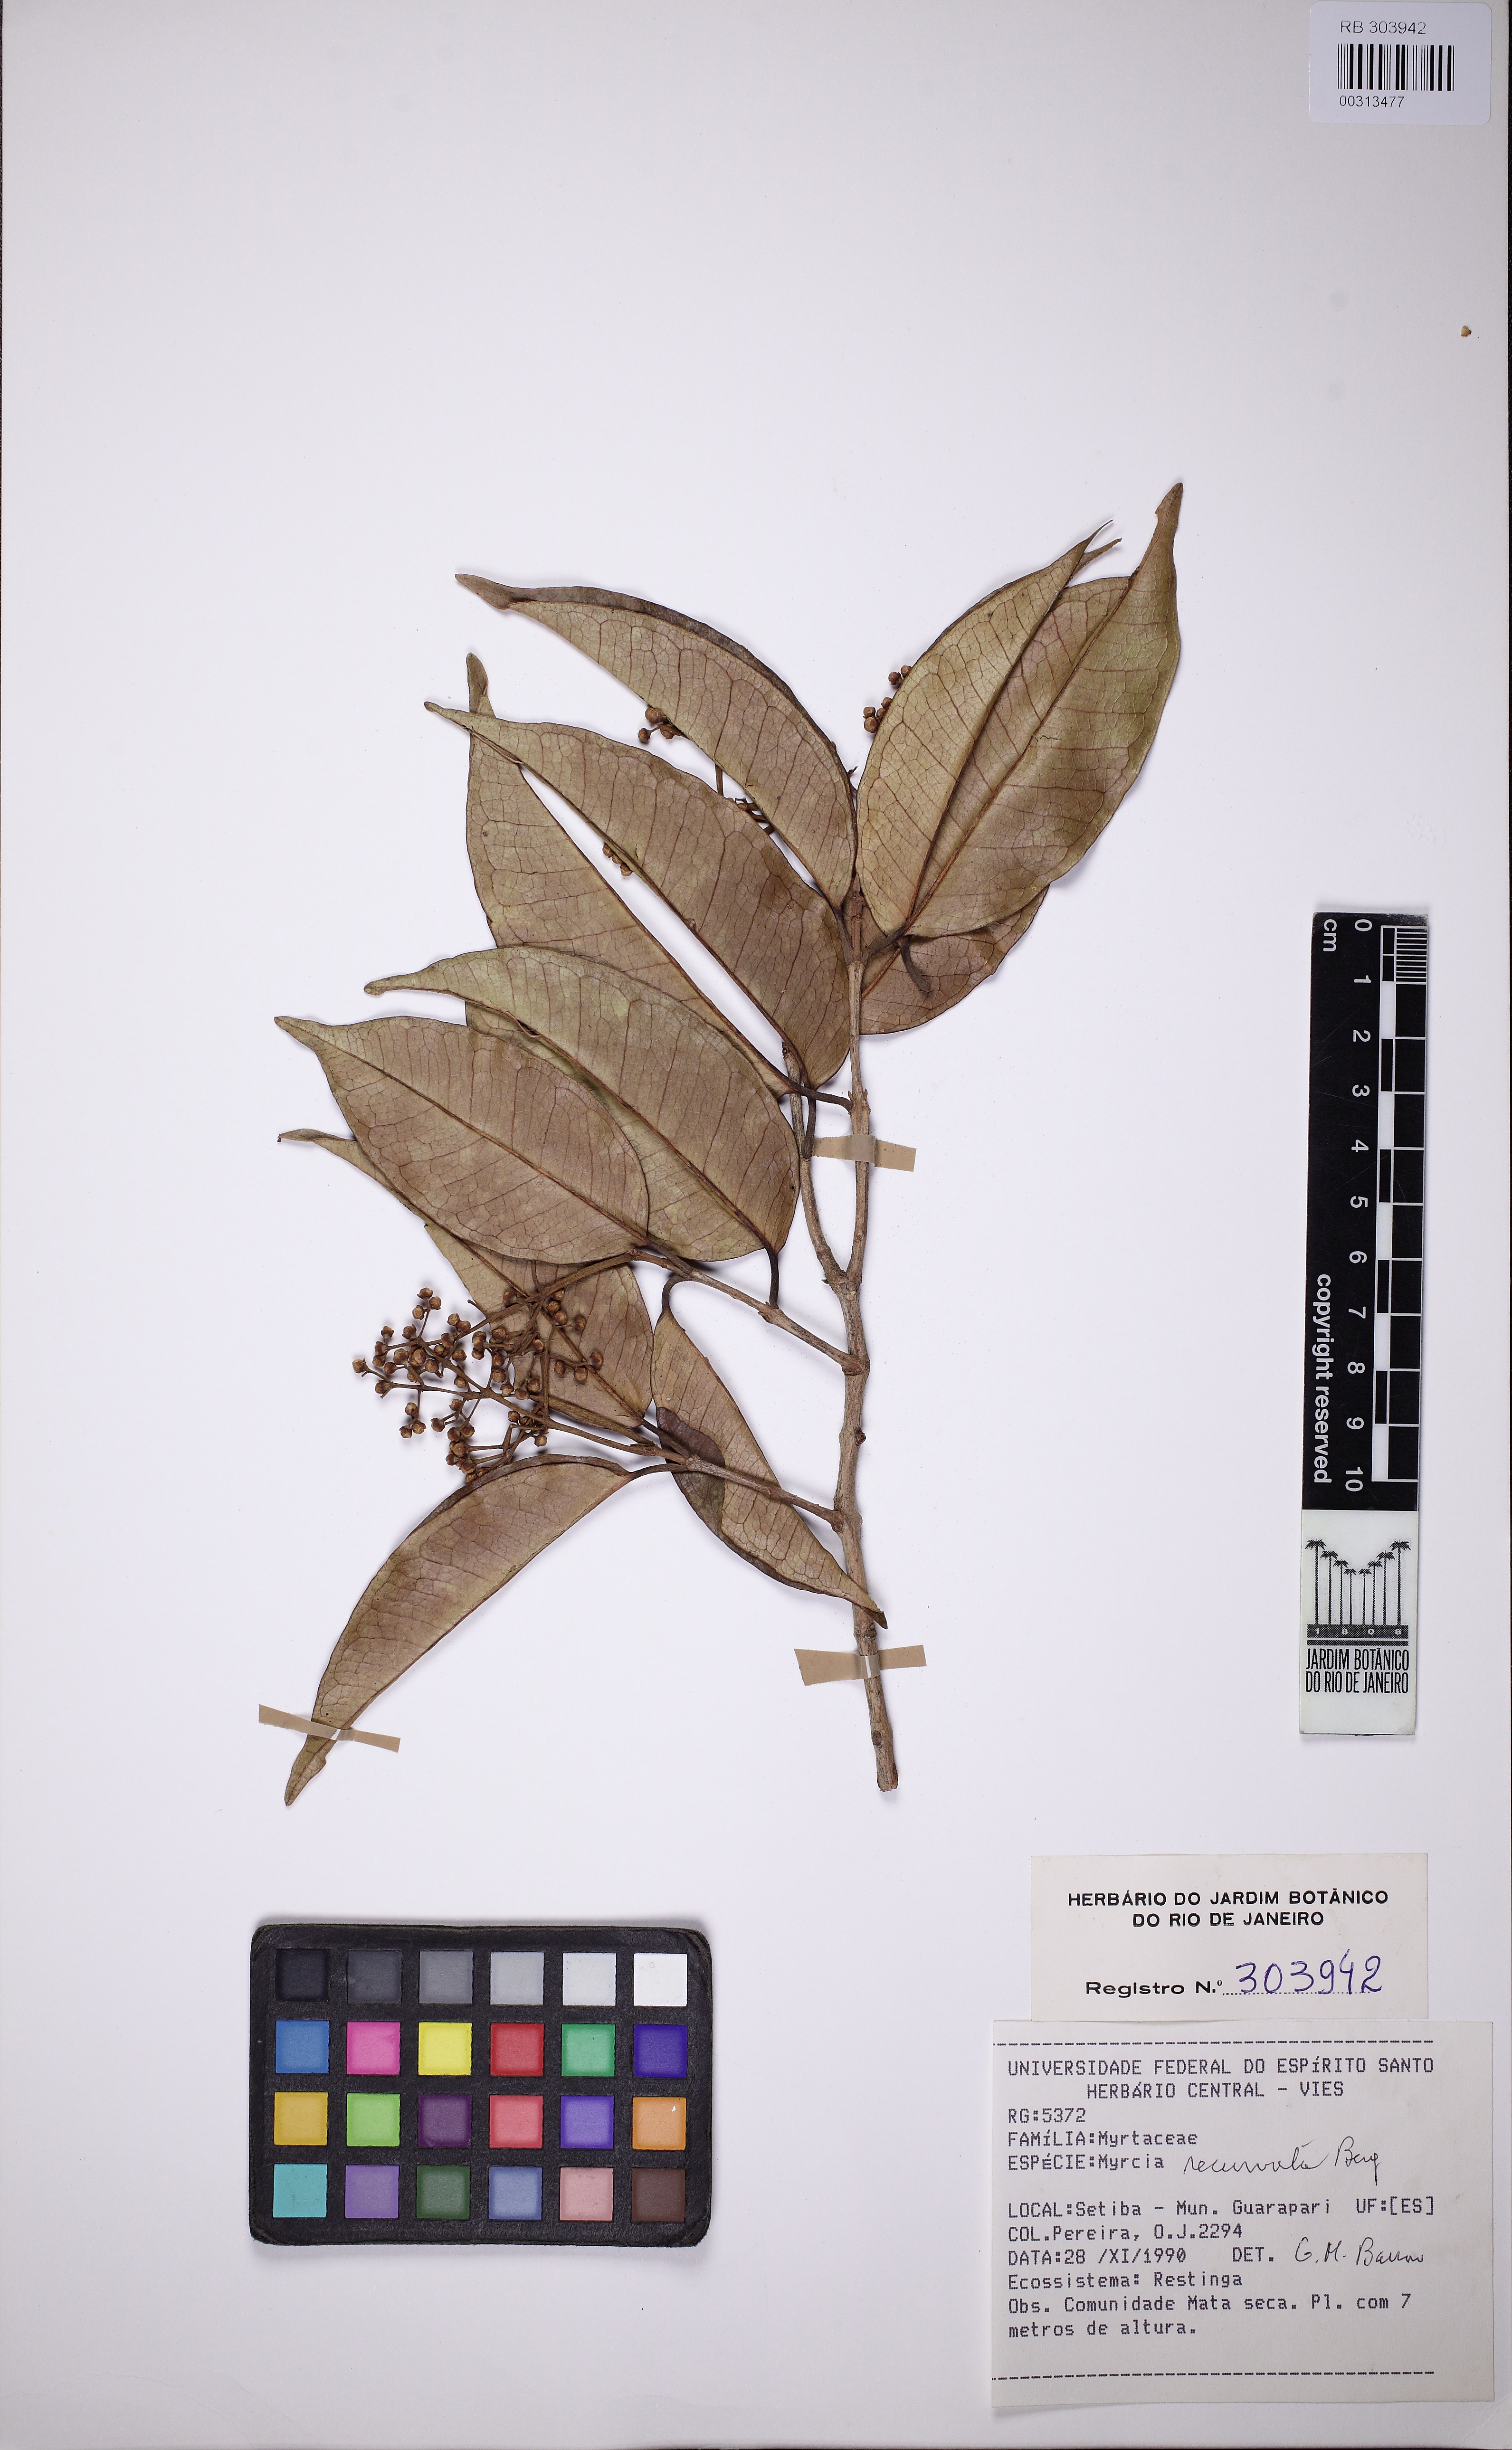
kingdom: Plantae
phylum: Tracheophyta
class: Magnoliopsida
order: Myrtales
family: Myrtaceae
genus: Myrcia
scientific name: Myrcia recurvata
